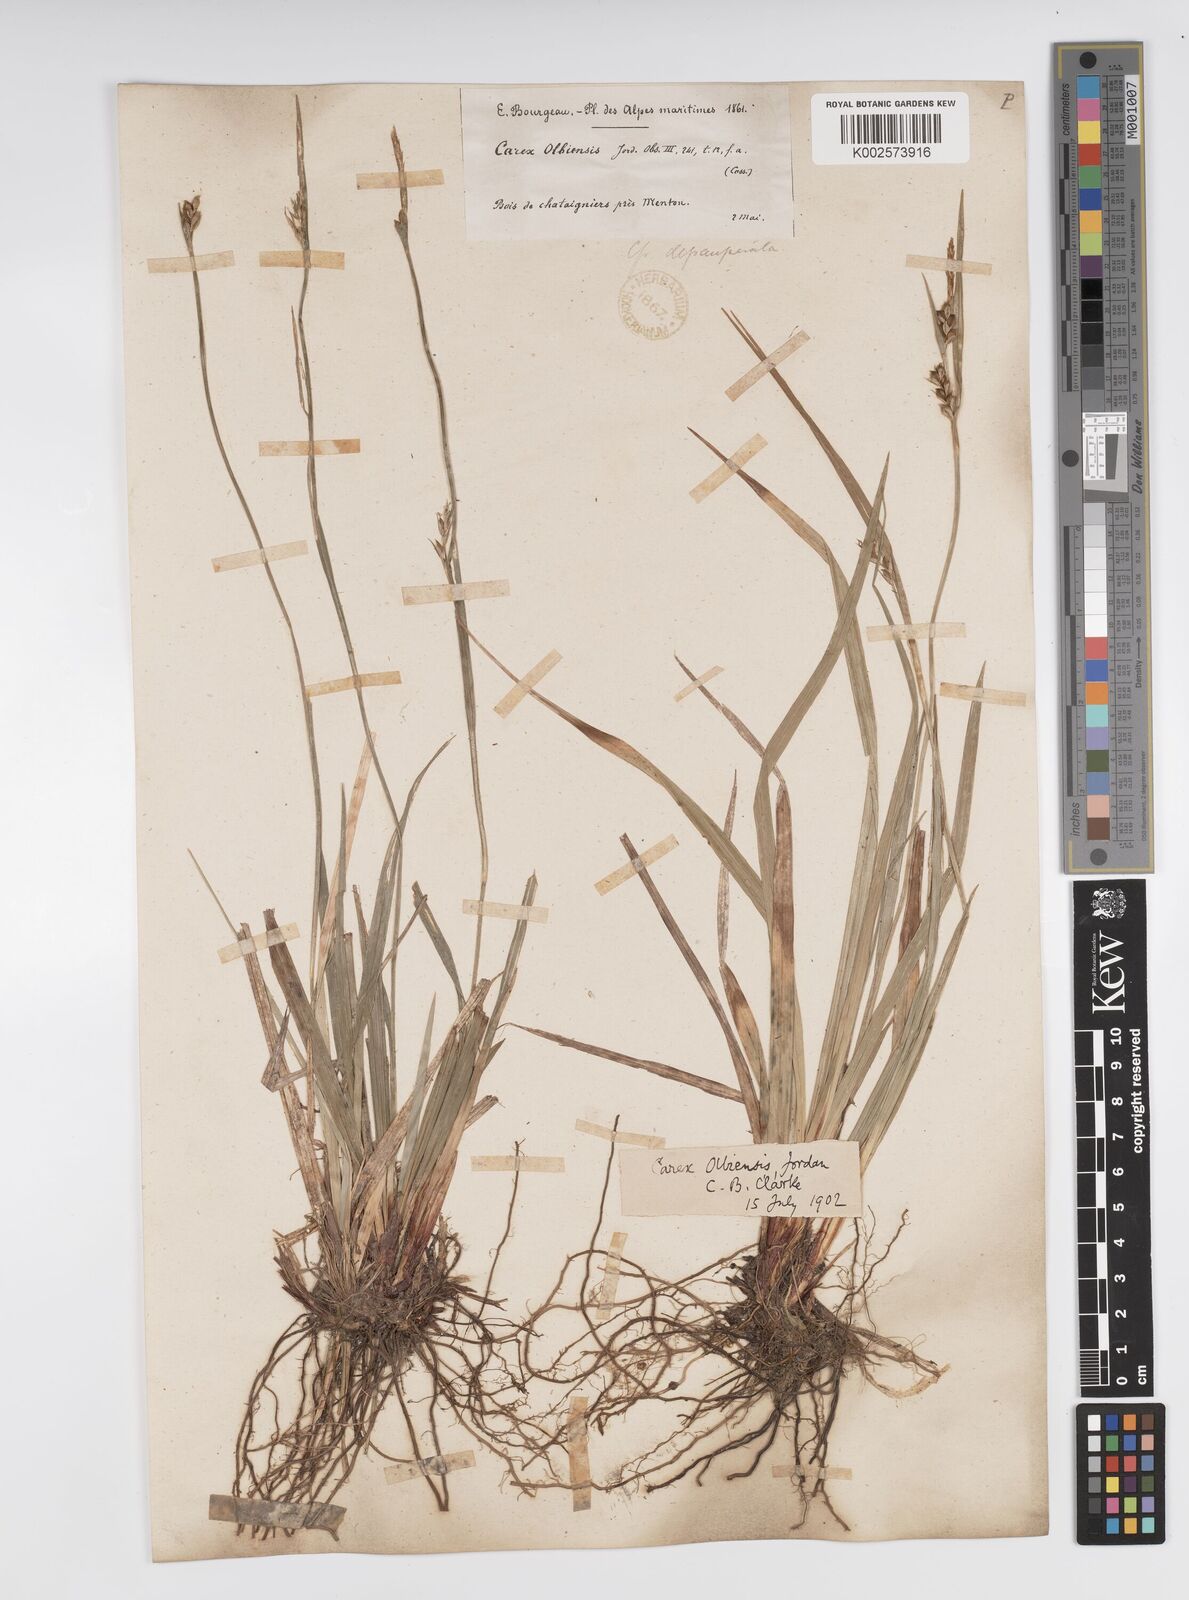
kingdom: Plantae
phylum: Tracheophyta
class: Liliopsida
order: Poales
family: Cyperaceae
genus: Carex
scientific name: Carex olbiensis
